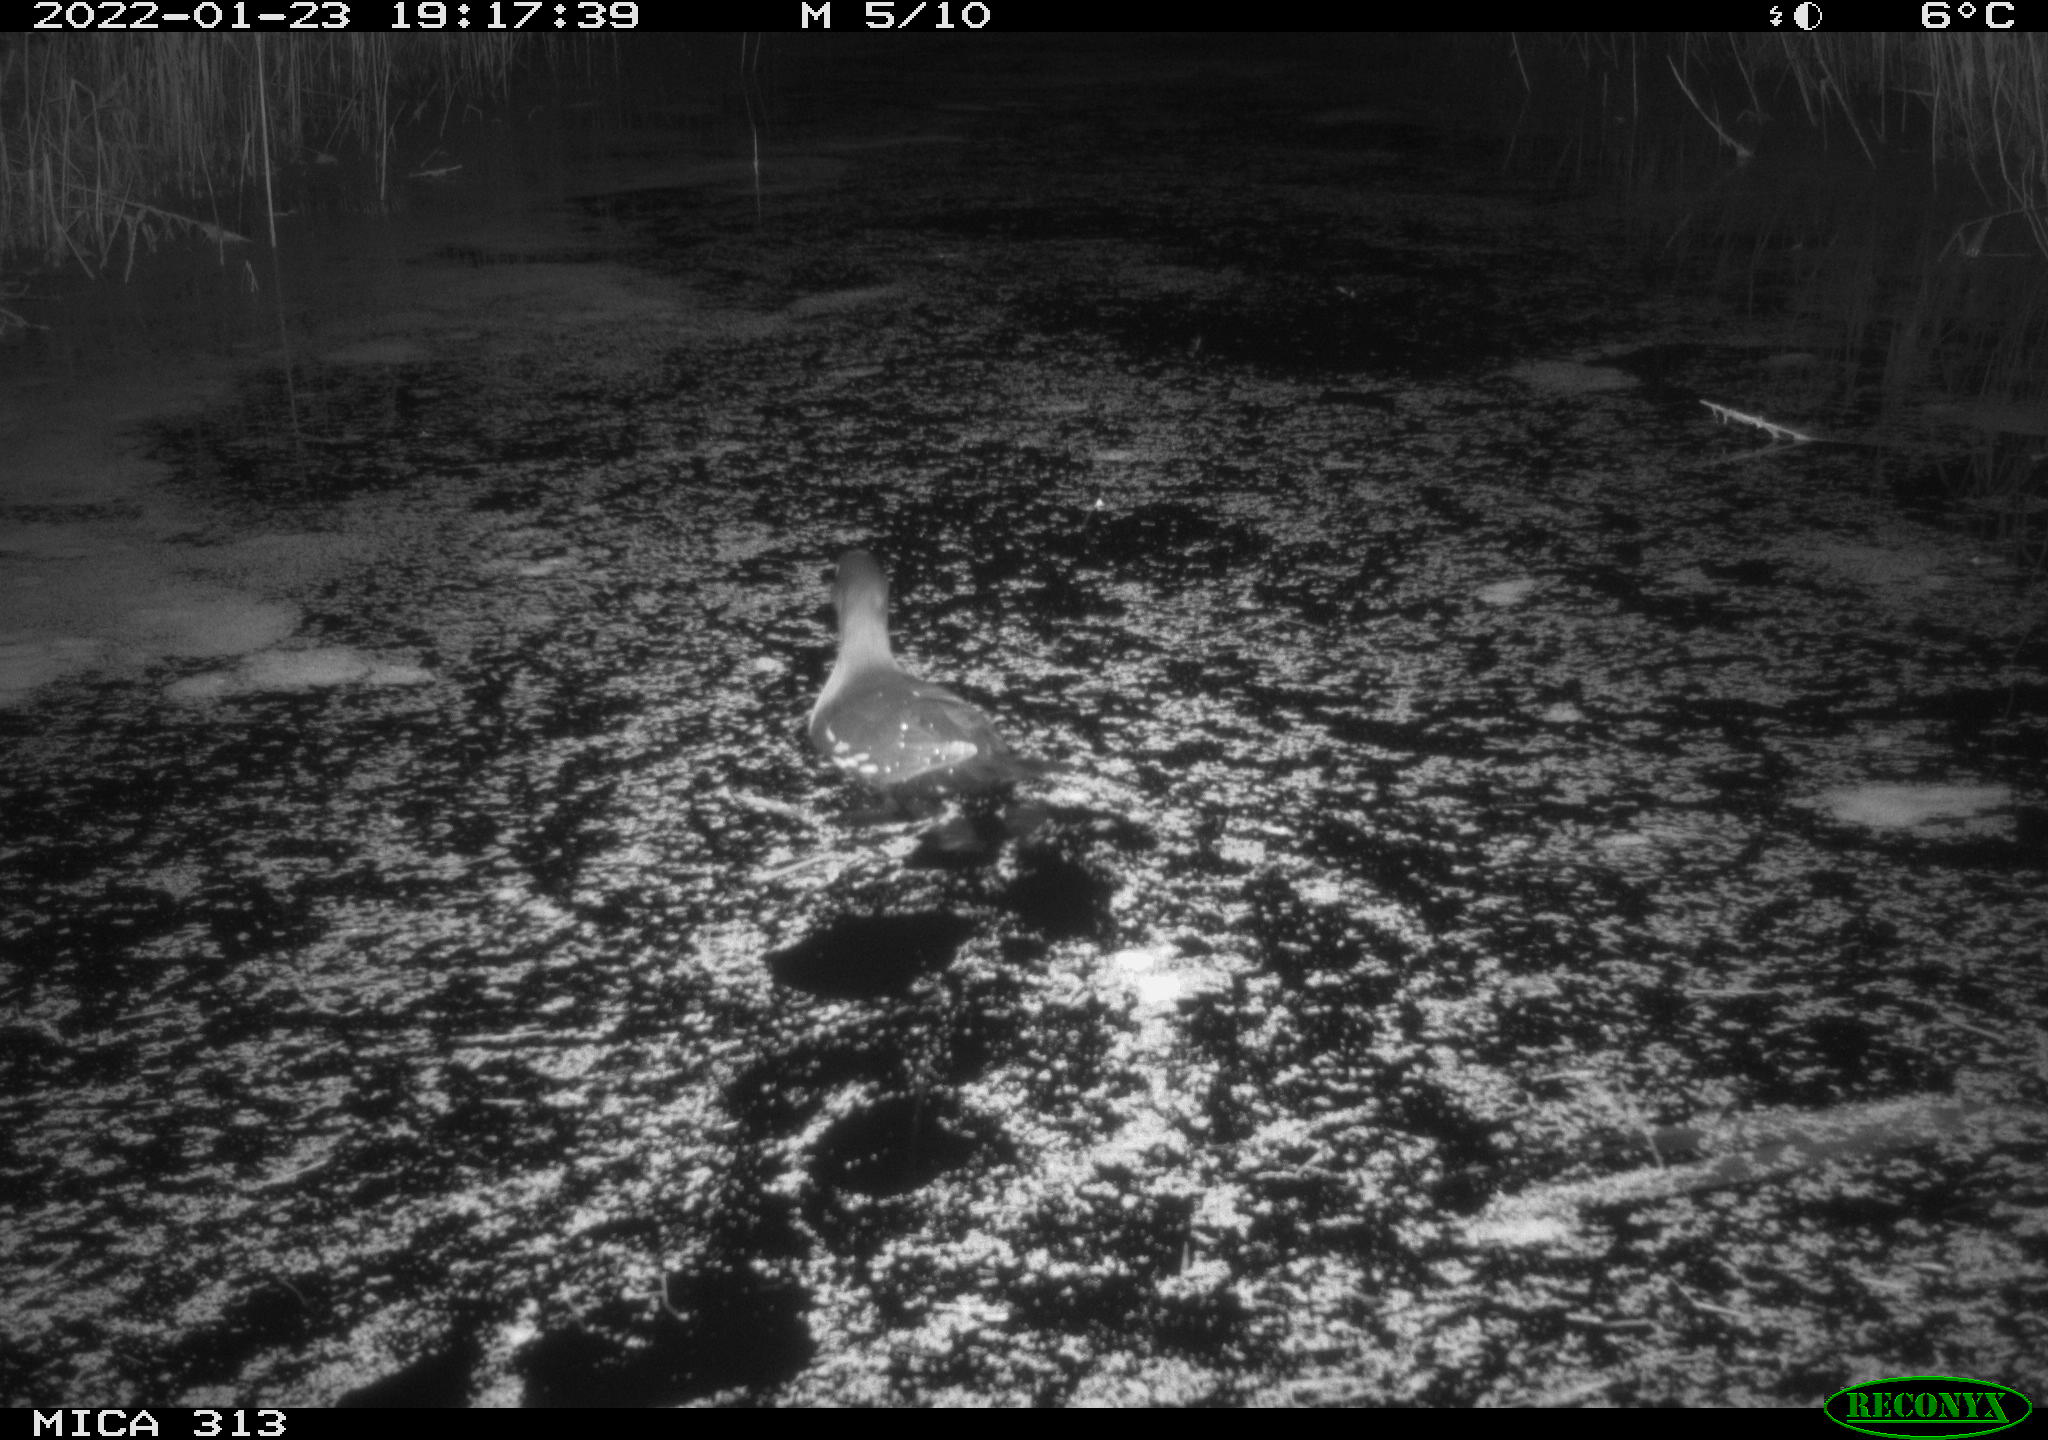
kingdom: Animalia
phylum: Chordata
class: Aves
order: Gruiformes
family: Rallidae
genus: Gallinula
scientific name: Gallinula chloropus
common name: Common moorhen
